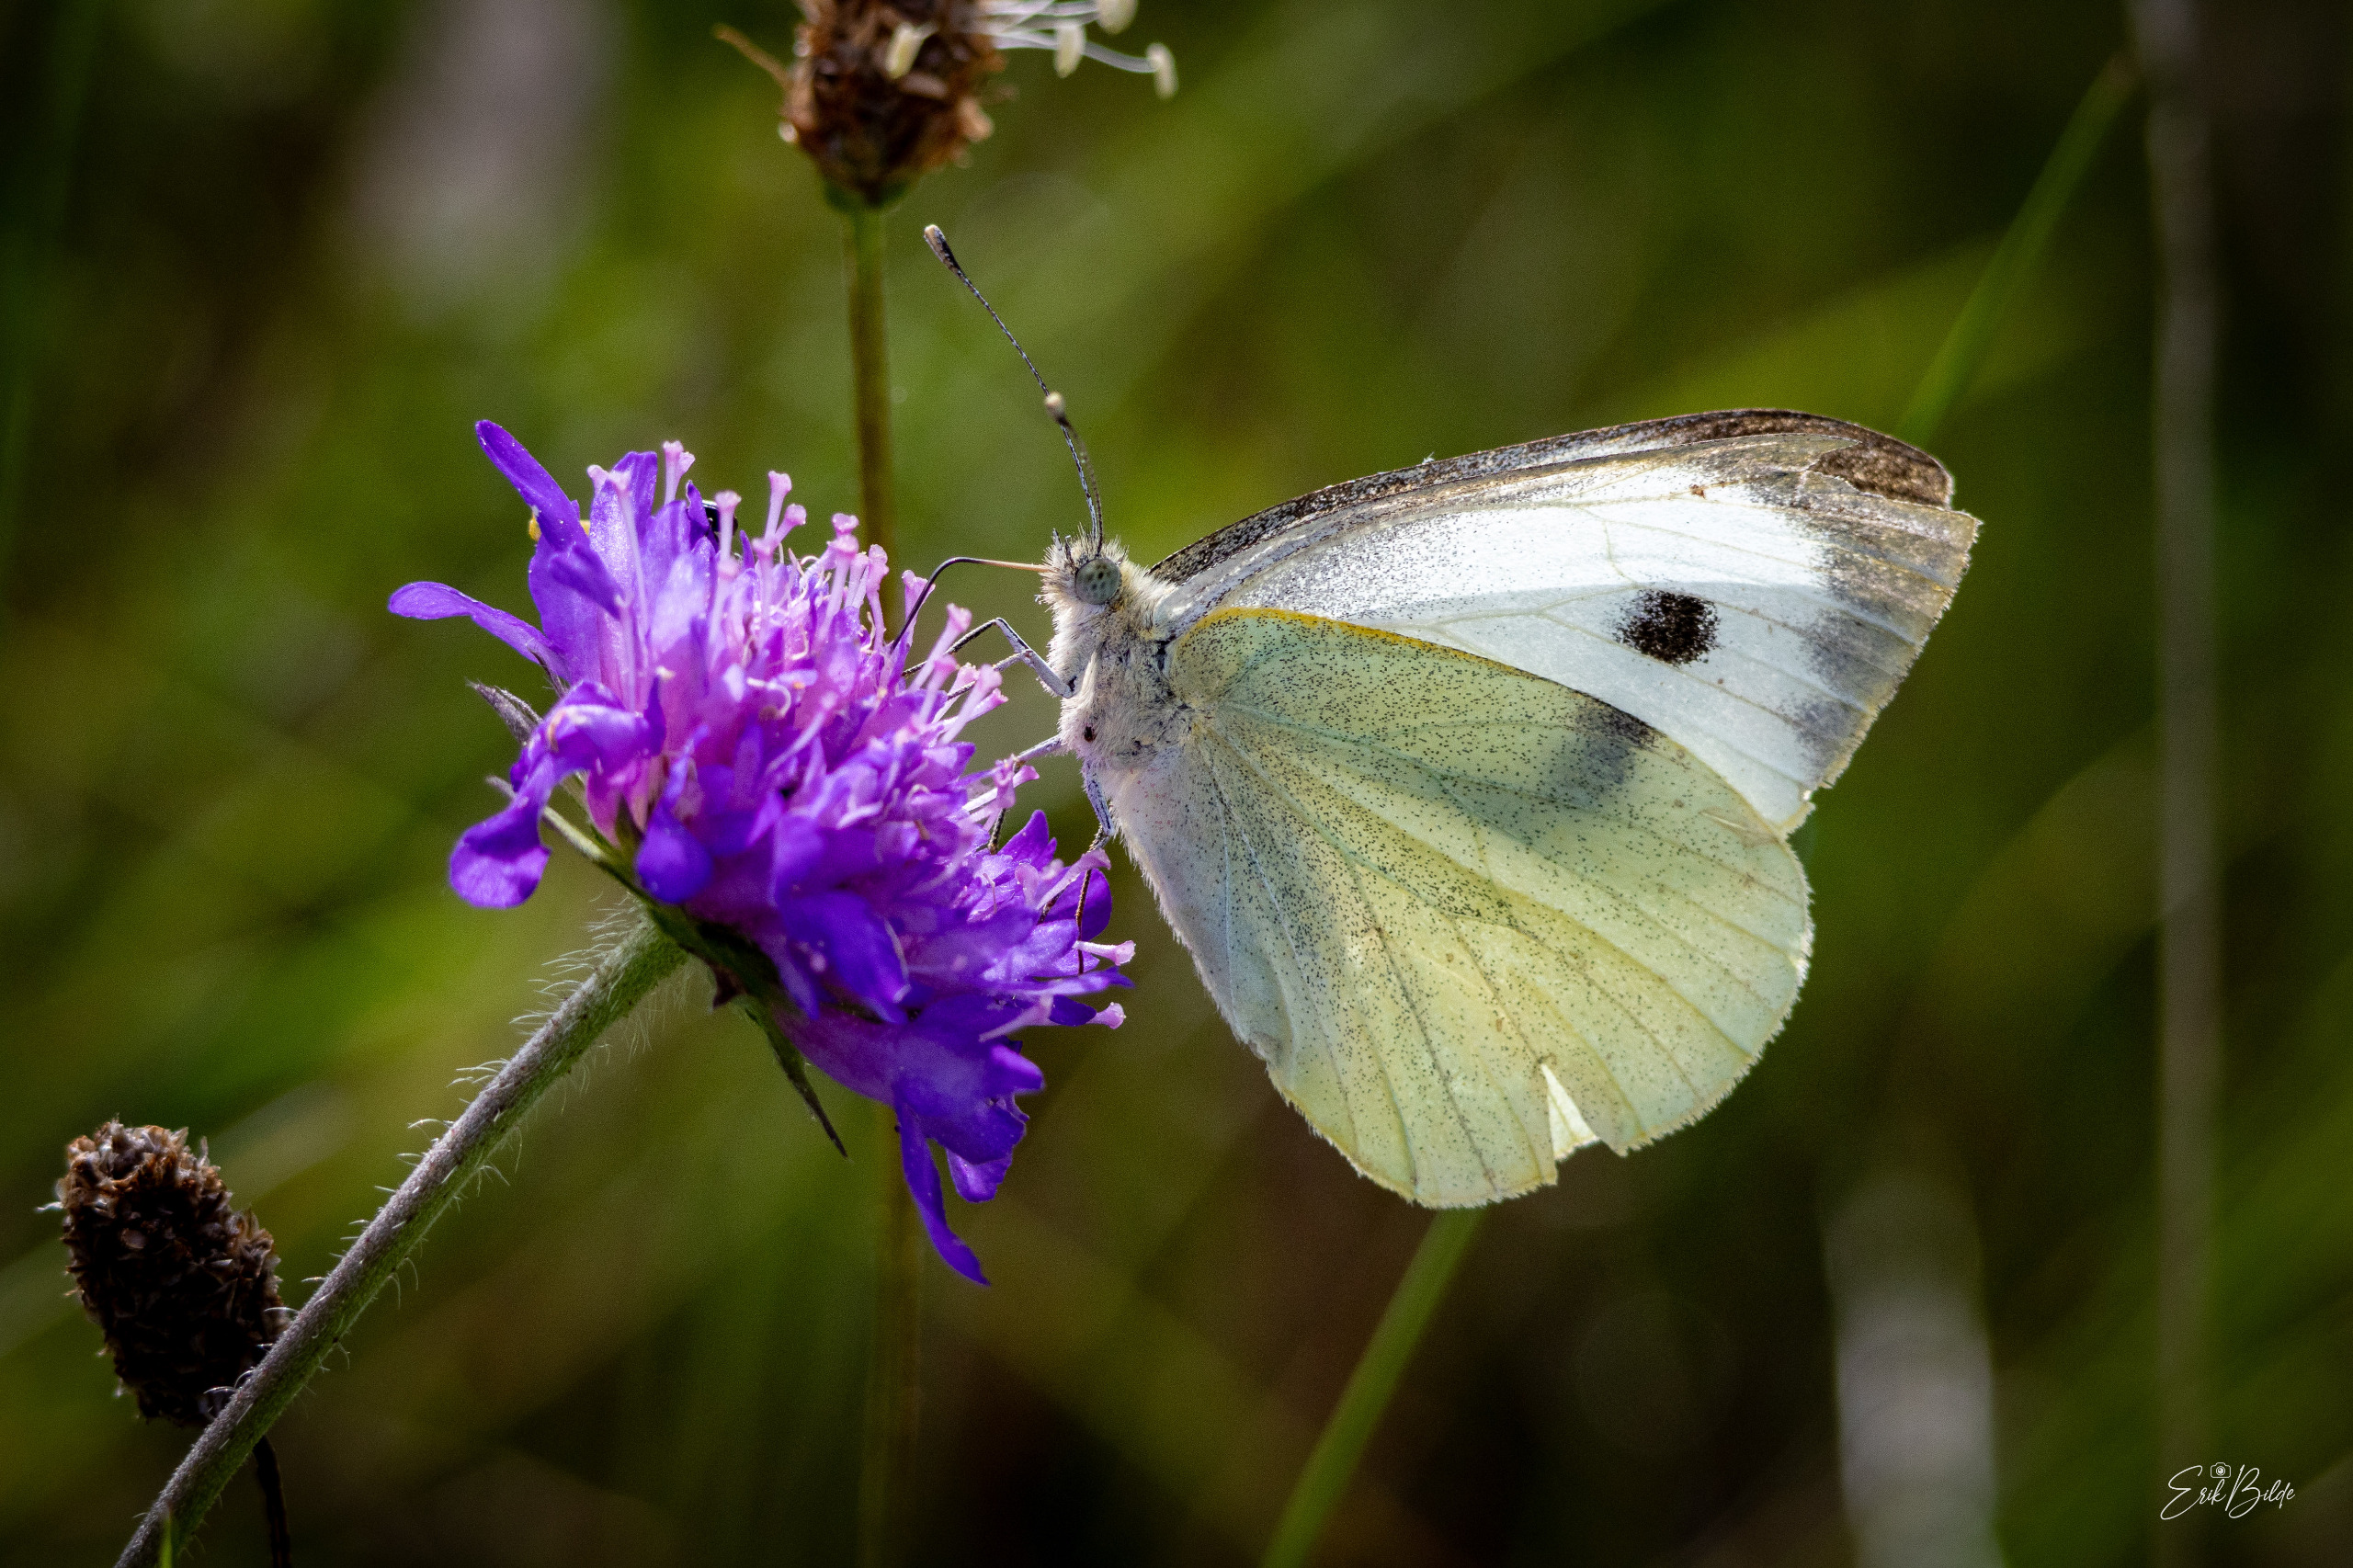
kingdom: Animalia
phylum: Arthropoda
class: Insecta
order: Lepidoptera
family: Pieridae
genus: Pieris
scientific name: Pieris brassicae
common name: Stor kålsommerfugl
